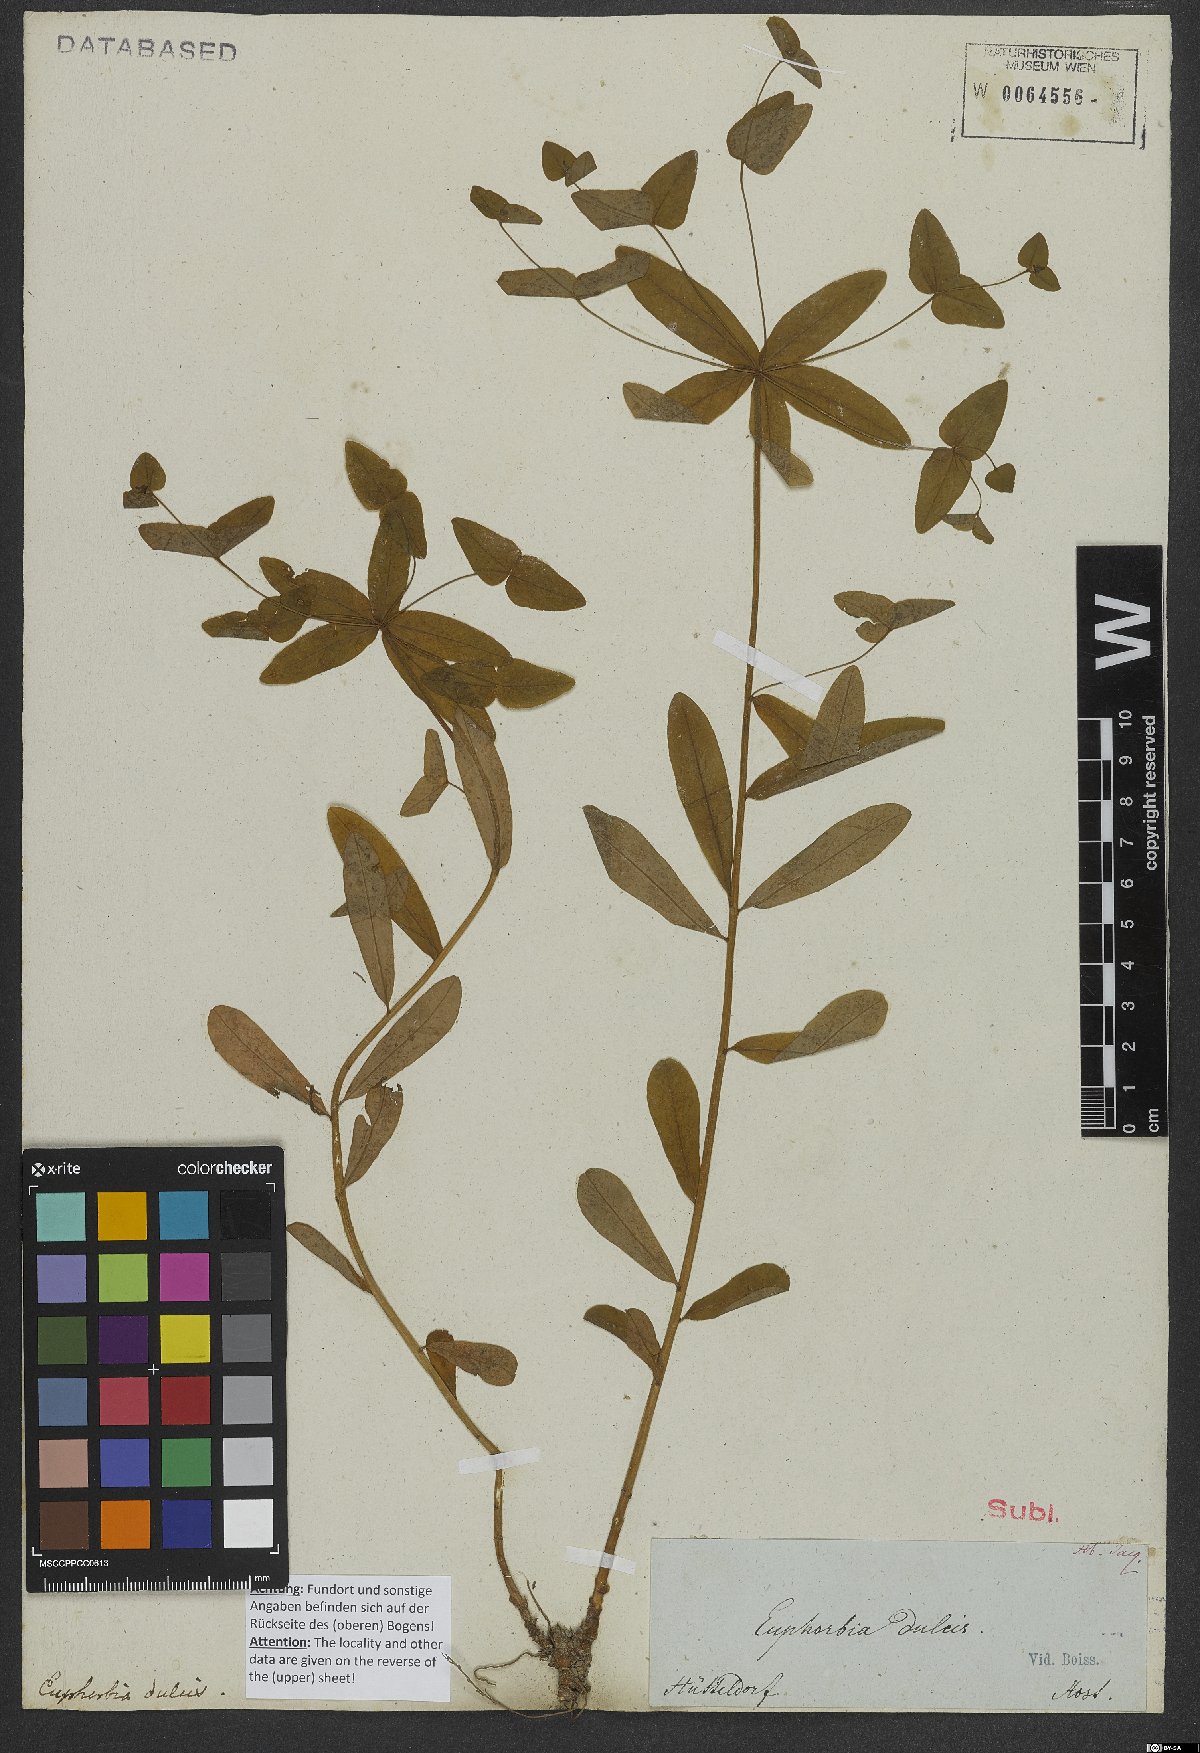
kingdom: Plantae
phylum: Tracheophyta
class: Magnoliopsida
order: Malpighiales
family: Euphorbiaceae
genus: Euphorbia
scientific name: Euphorbia dulcis
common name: Sweet spurge
